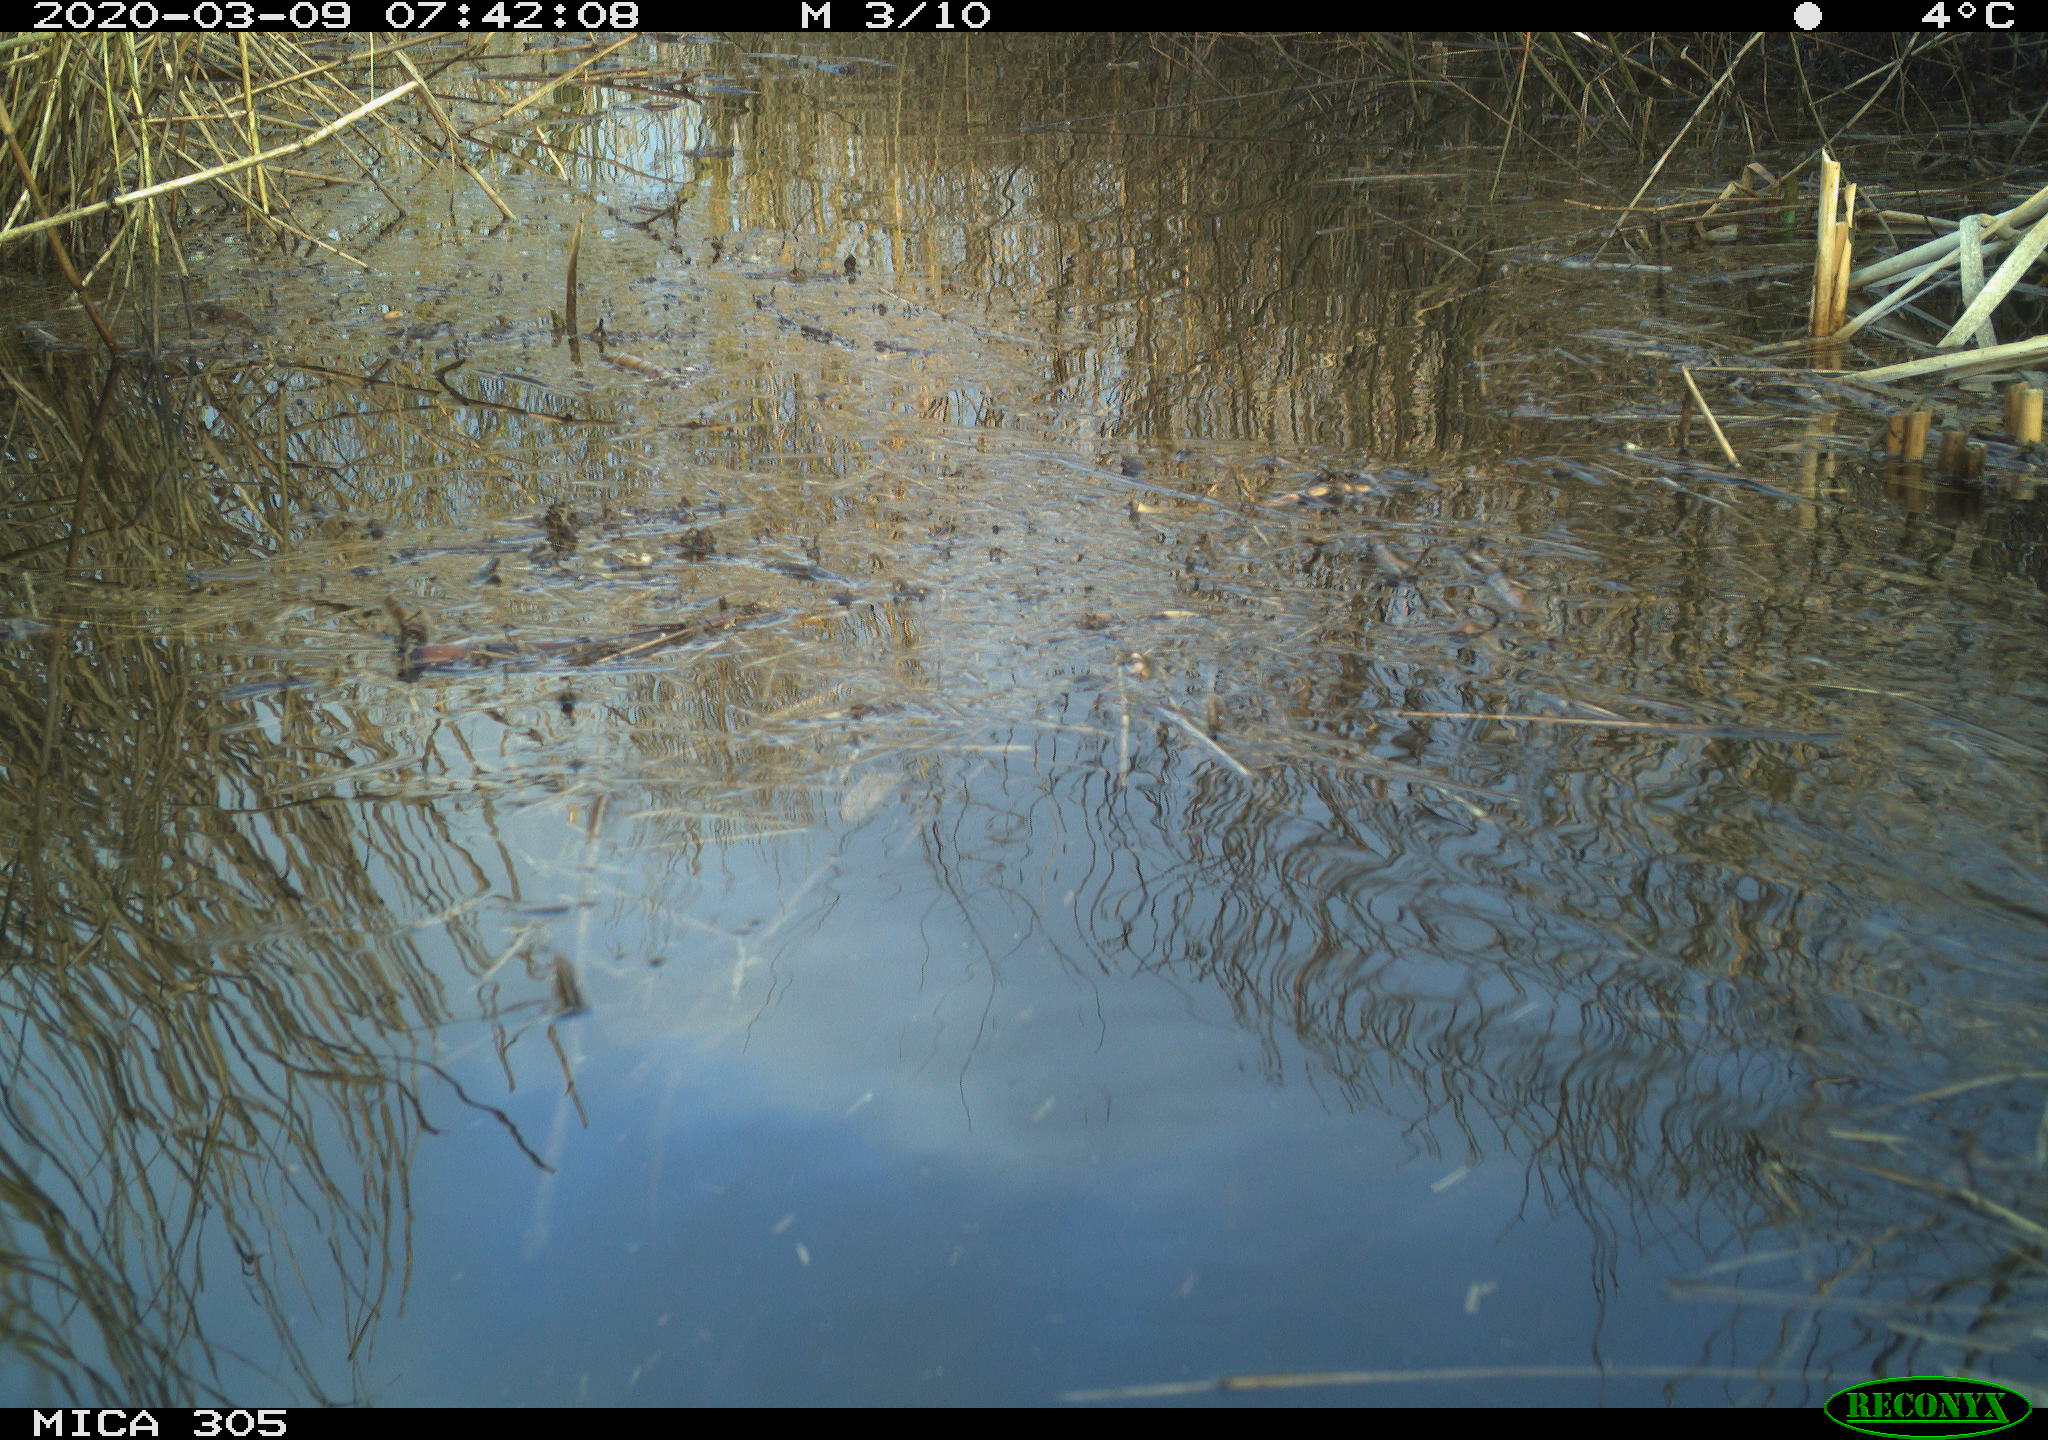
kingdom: Animalia
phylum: Chordata
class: Aves
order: Anseriformes
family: Anatidae
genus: Anser
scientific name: Anser anser
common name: Greylag goose
